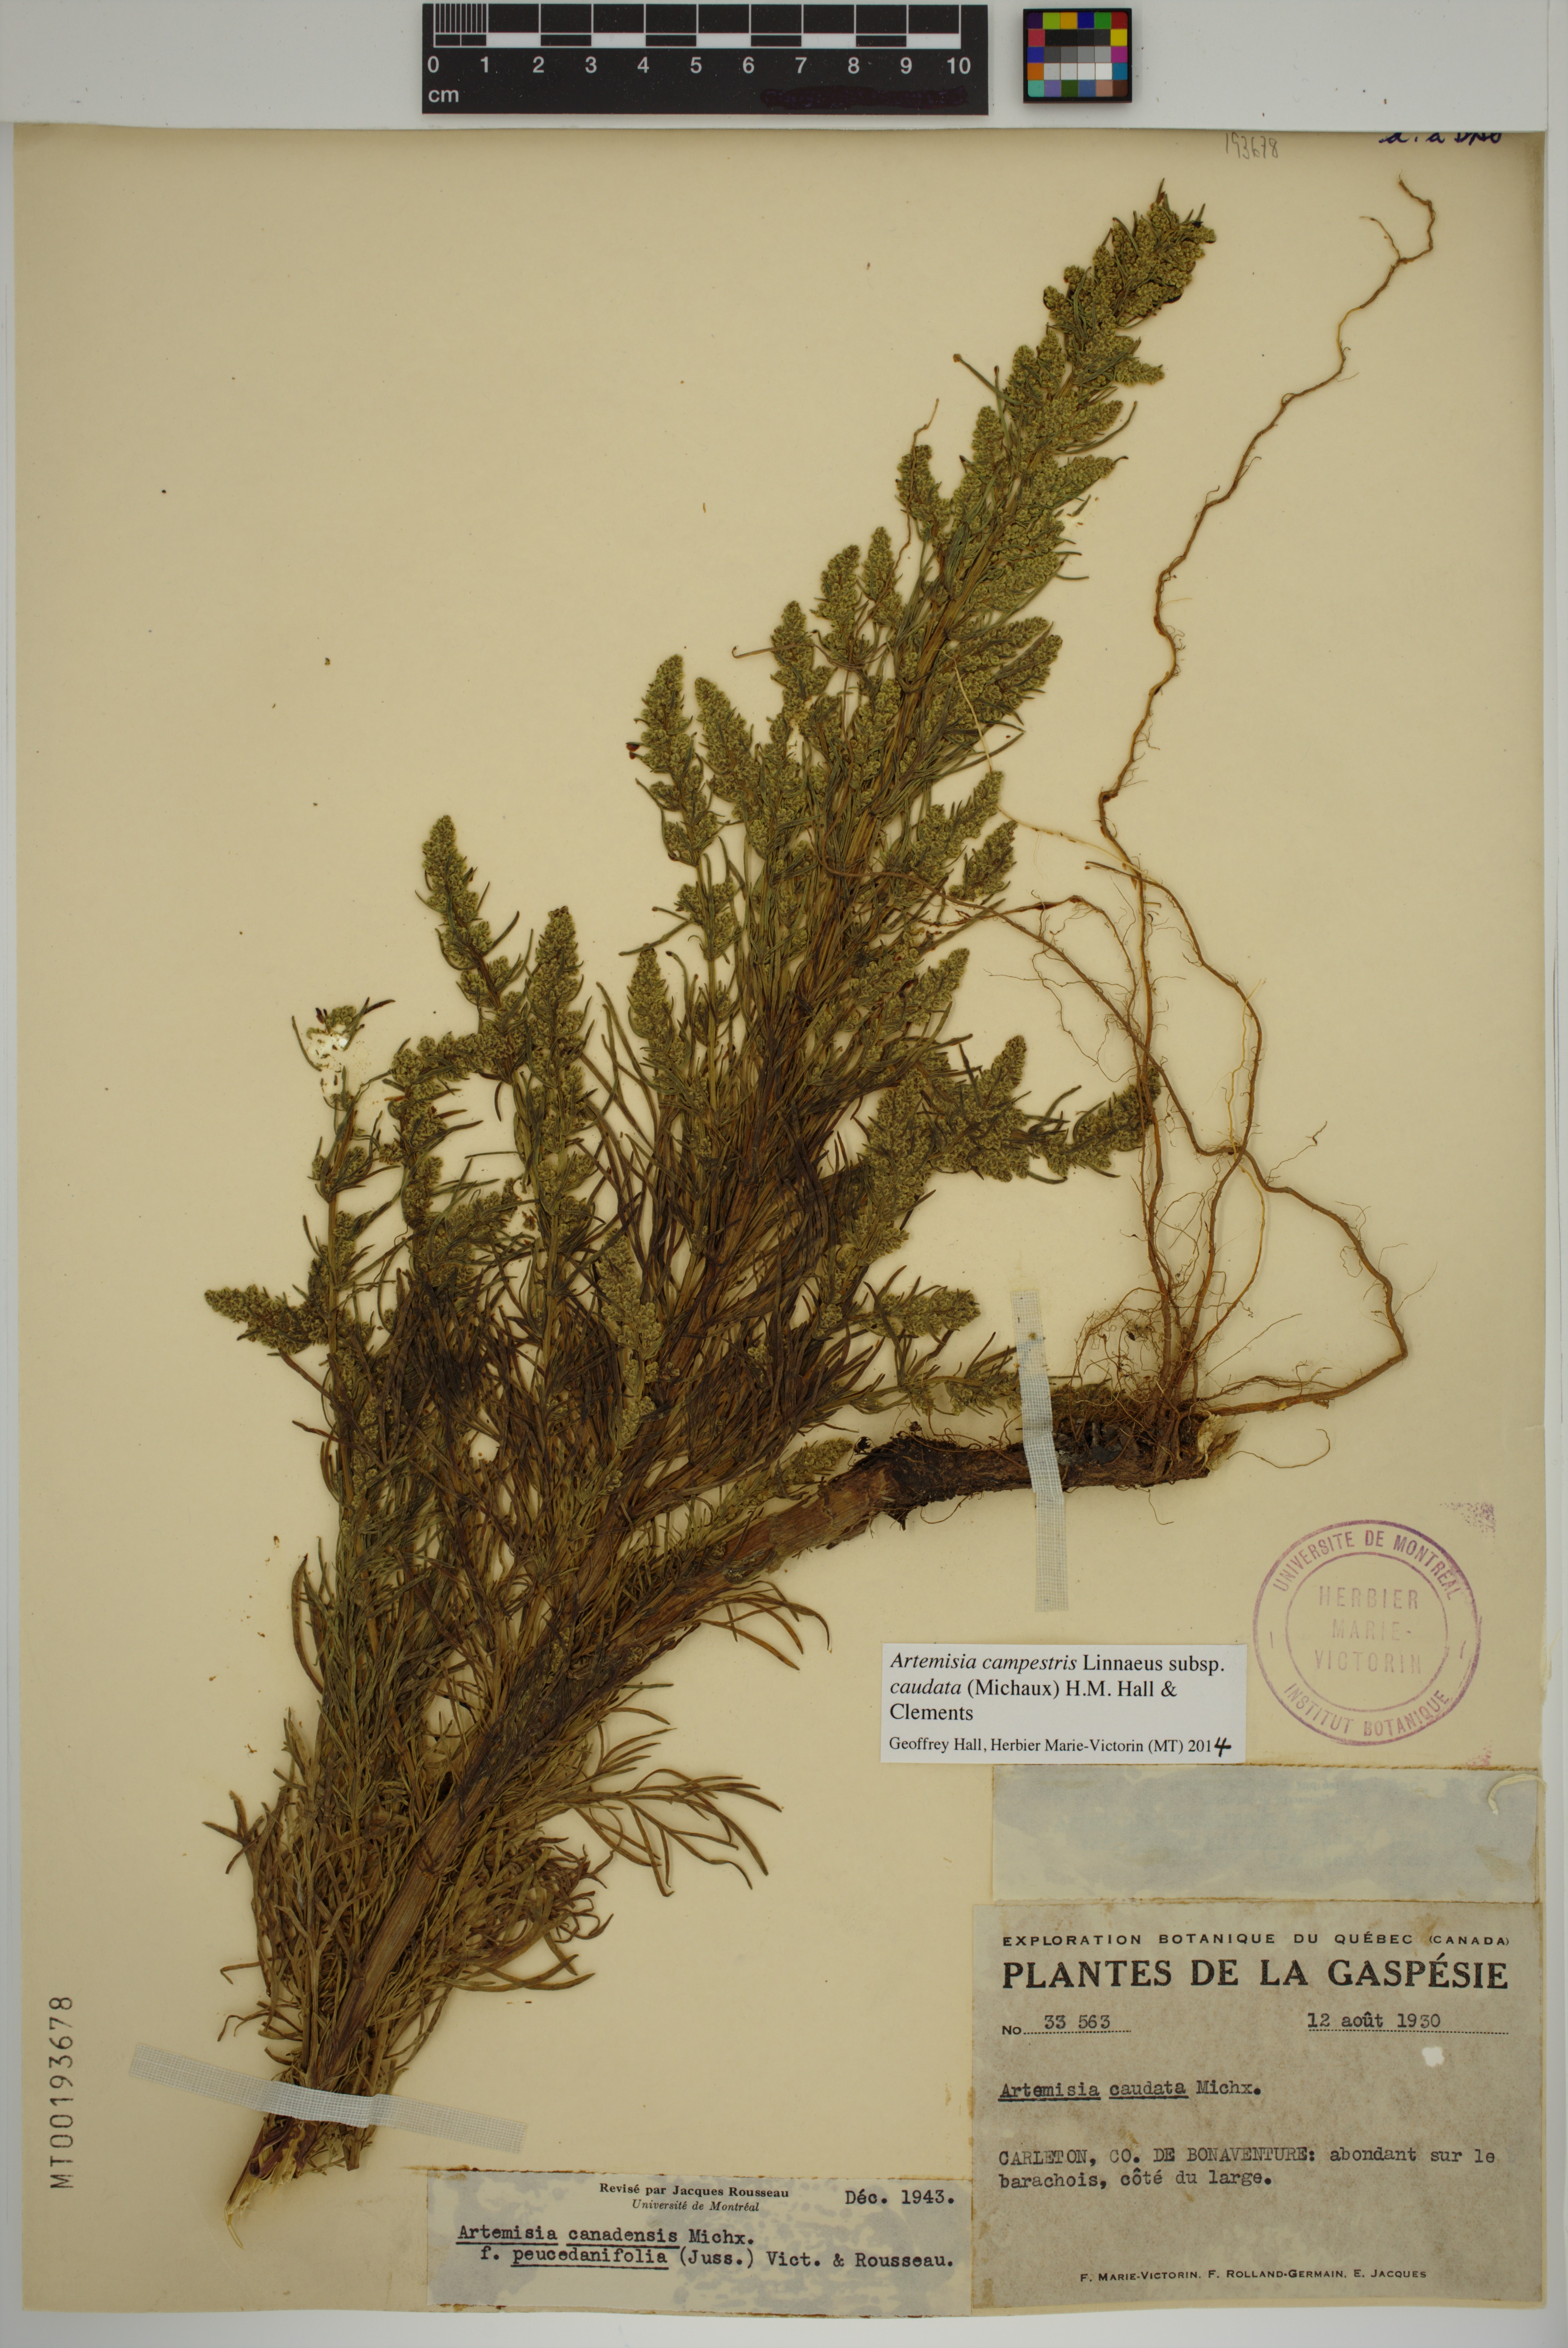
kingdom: Plantae
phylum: Tracheophyta
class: Magnoliopsida
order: Asterales
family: Asteraceae
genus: Artemisia
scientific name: Artemisia campestris
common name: Field wormwood
